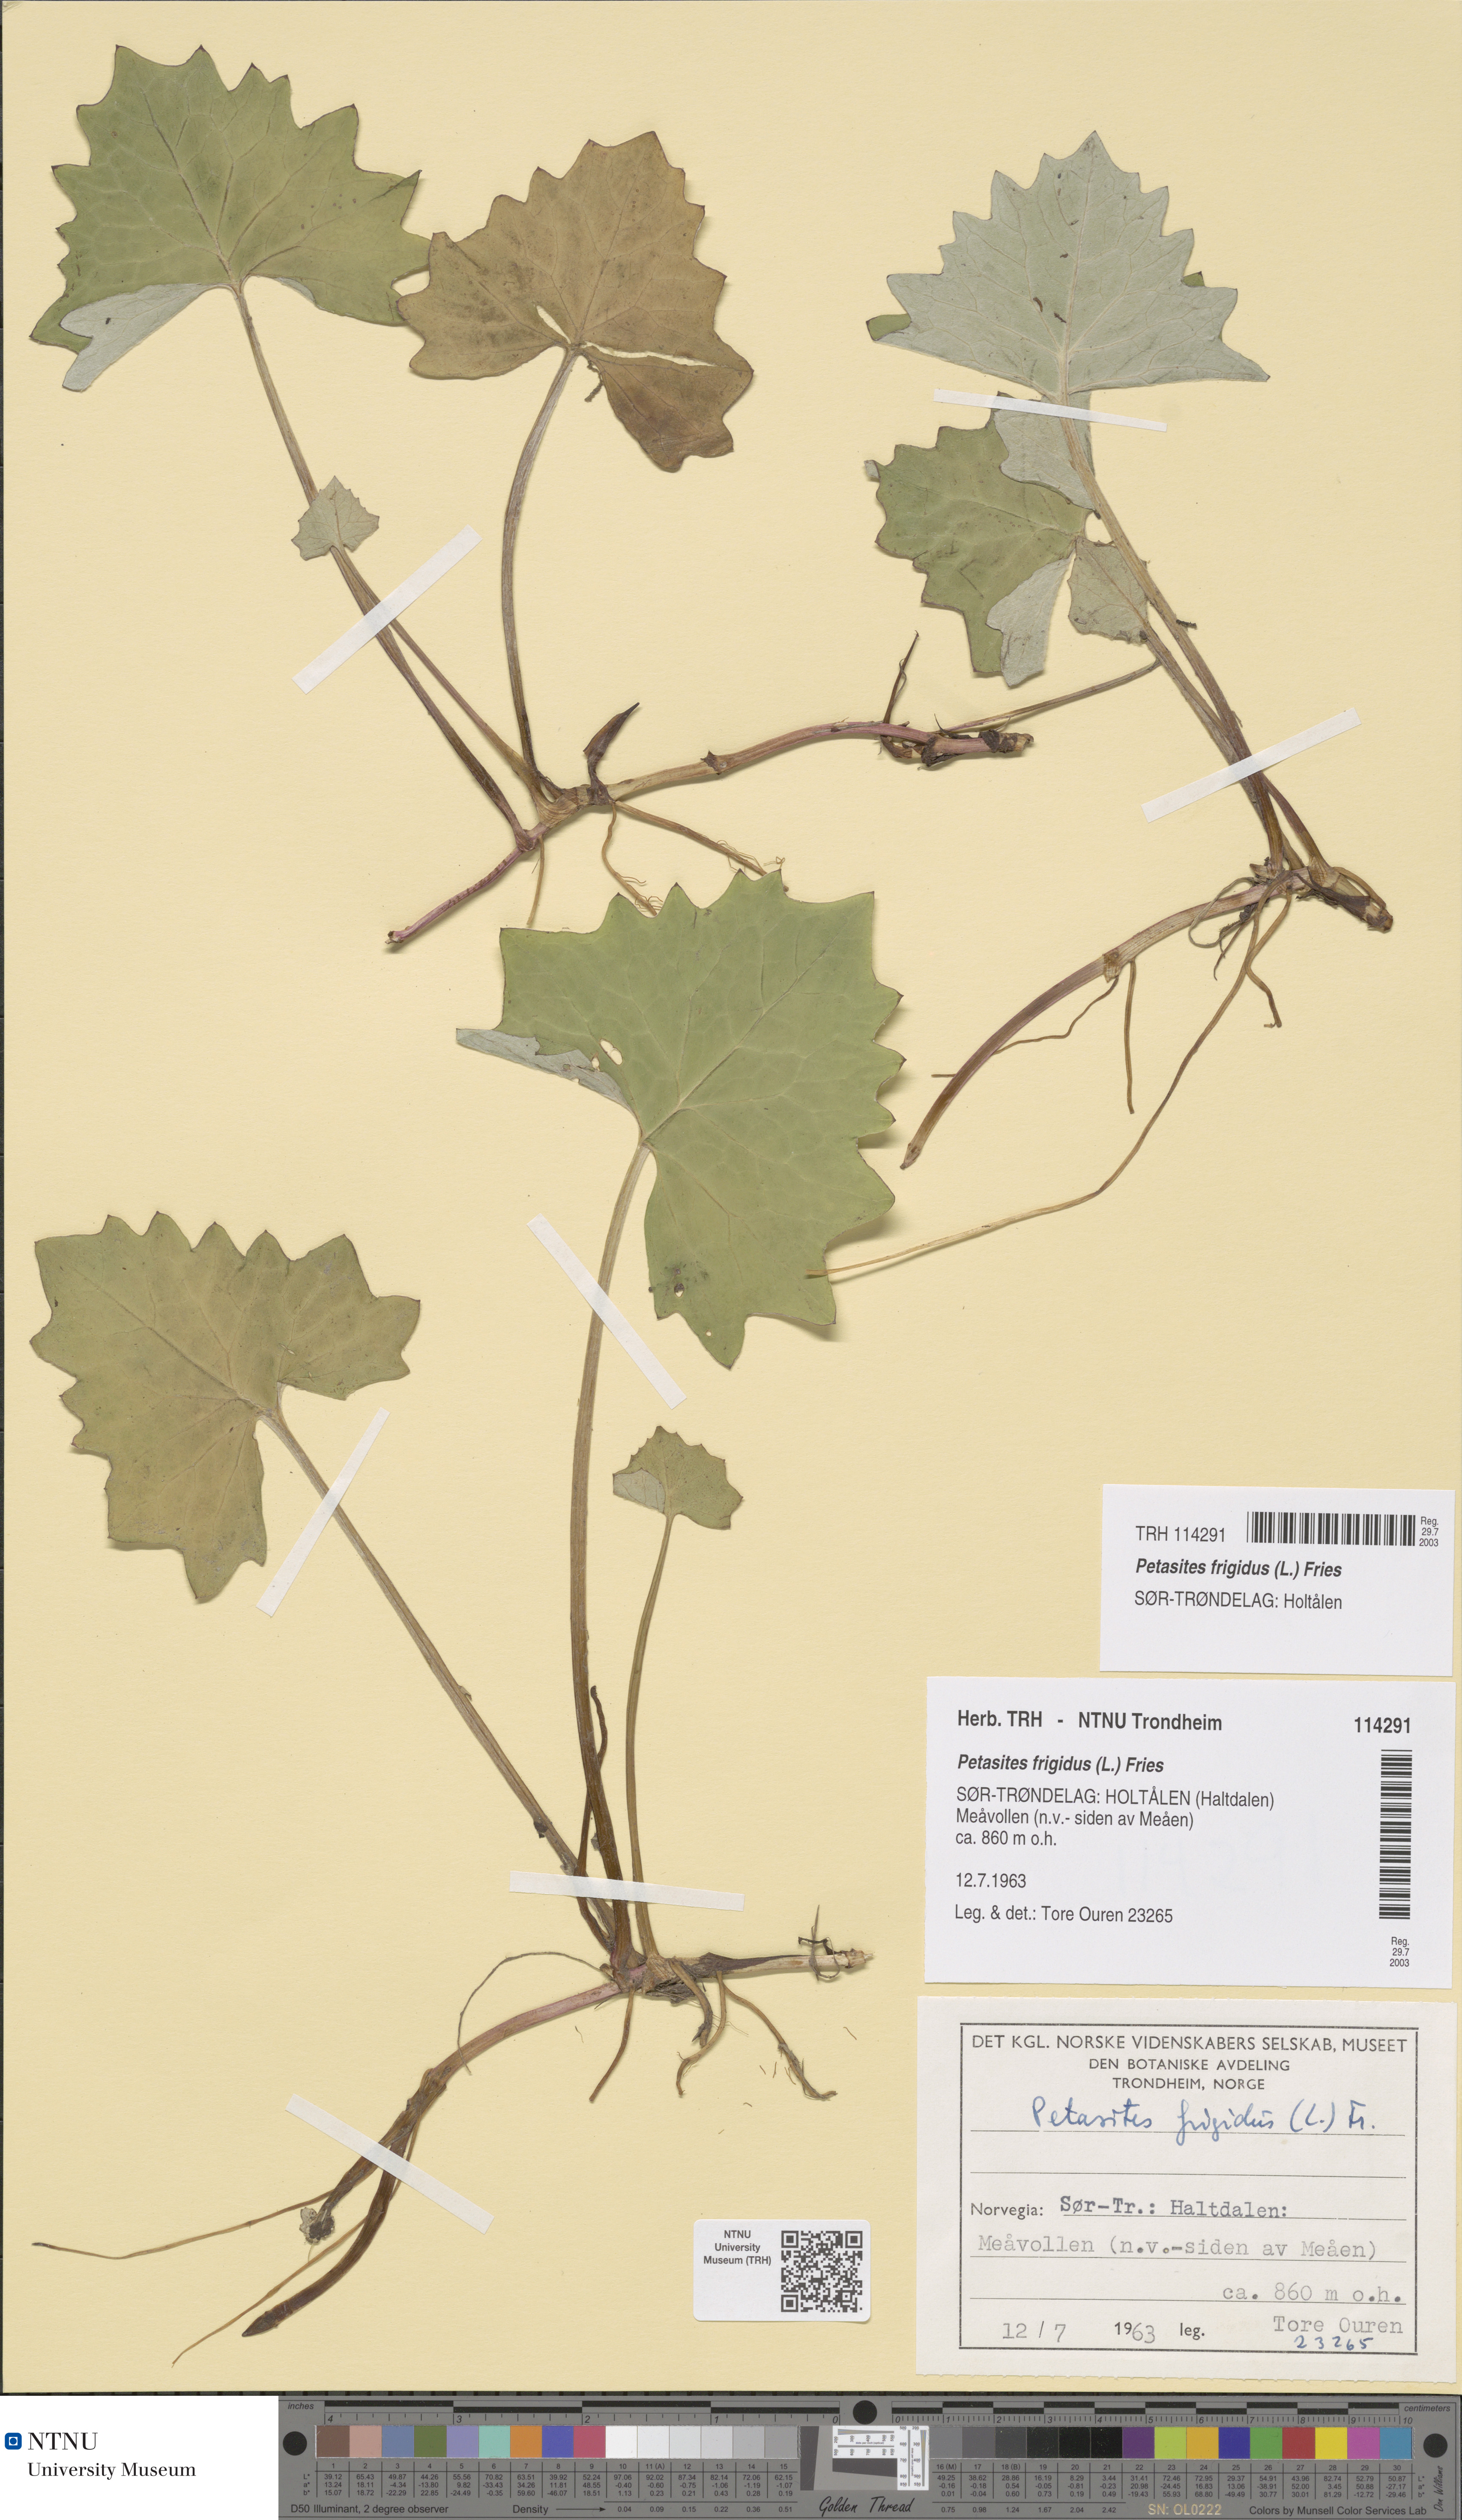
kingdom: Plantae
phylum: Tracheophyta
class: Magnoliopsida
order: Asterales
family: Asteraceae
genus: Petasites
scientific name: Petasites frigidus
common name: Arctic butterbur
